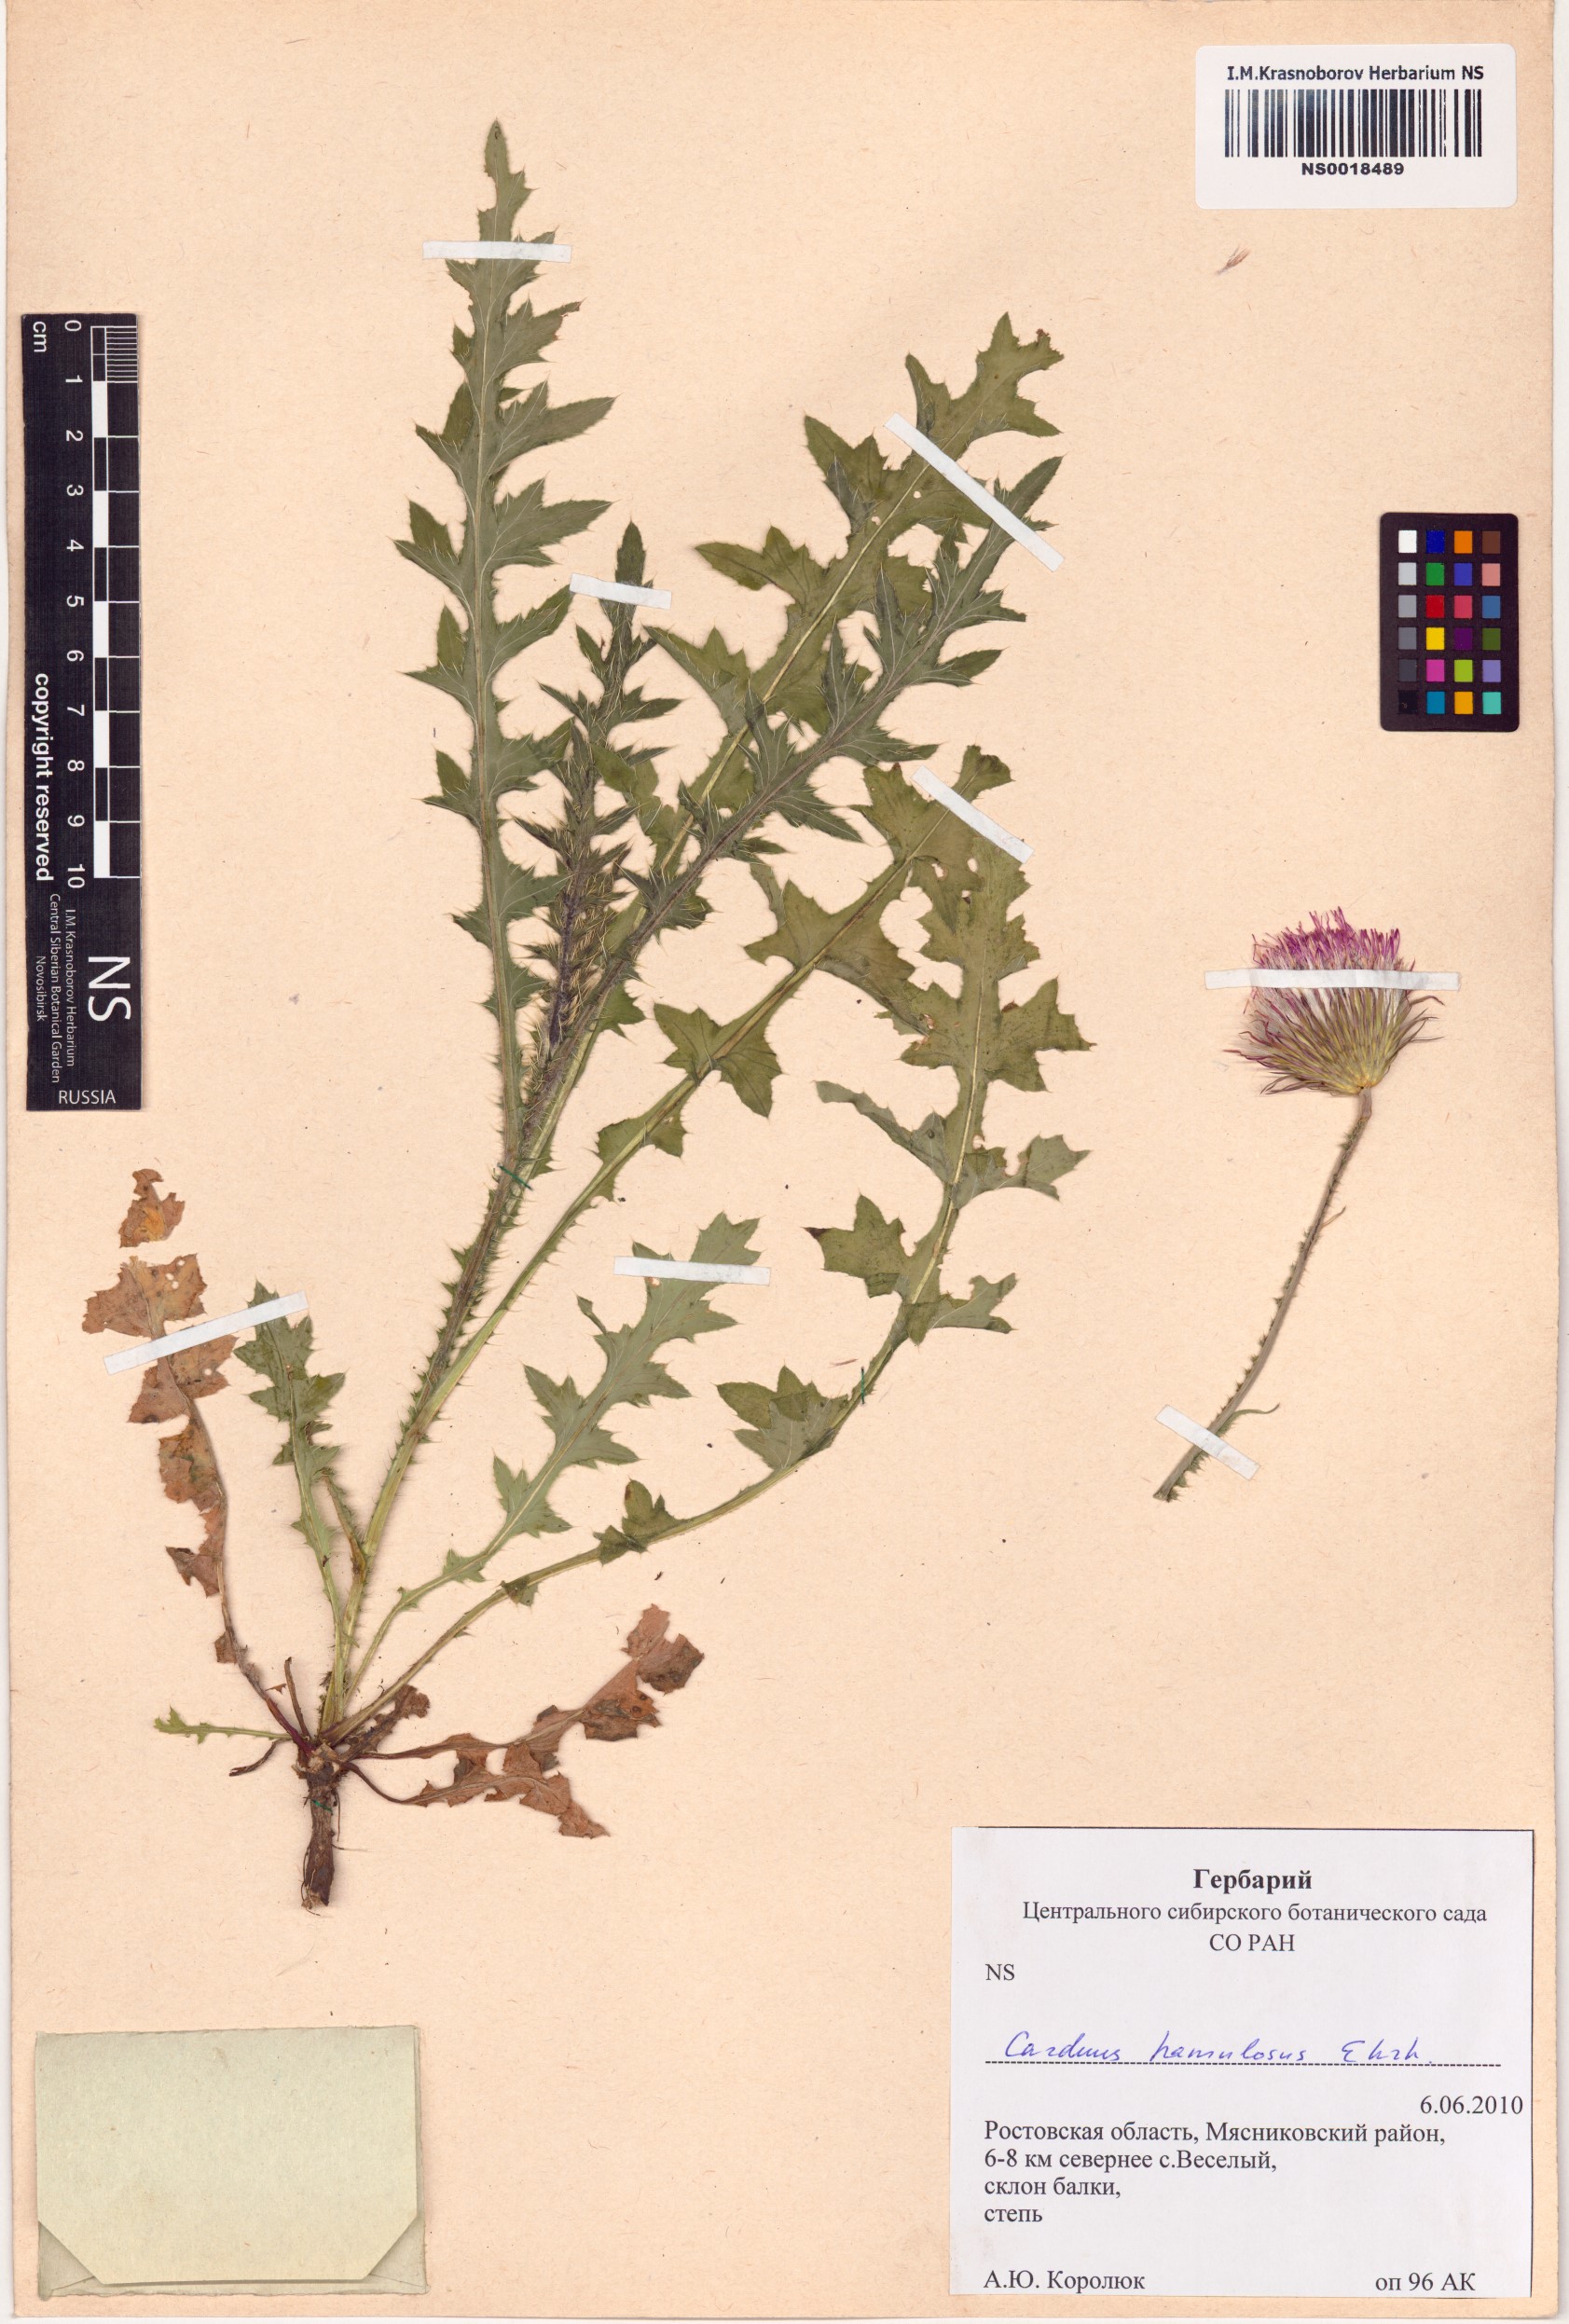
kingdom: Plantae
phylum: Tracheophyta
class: Magnoliopsida
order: Asterales
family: Asteraceae
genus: Carduus
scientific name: Carduus hamulosus
